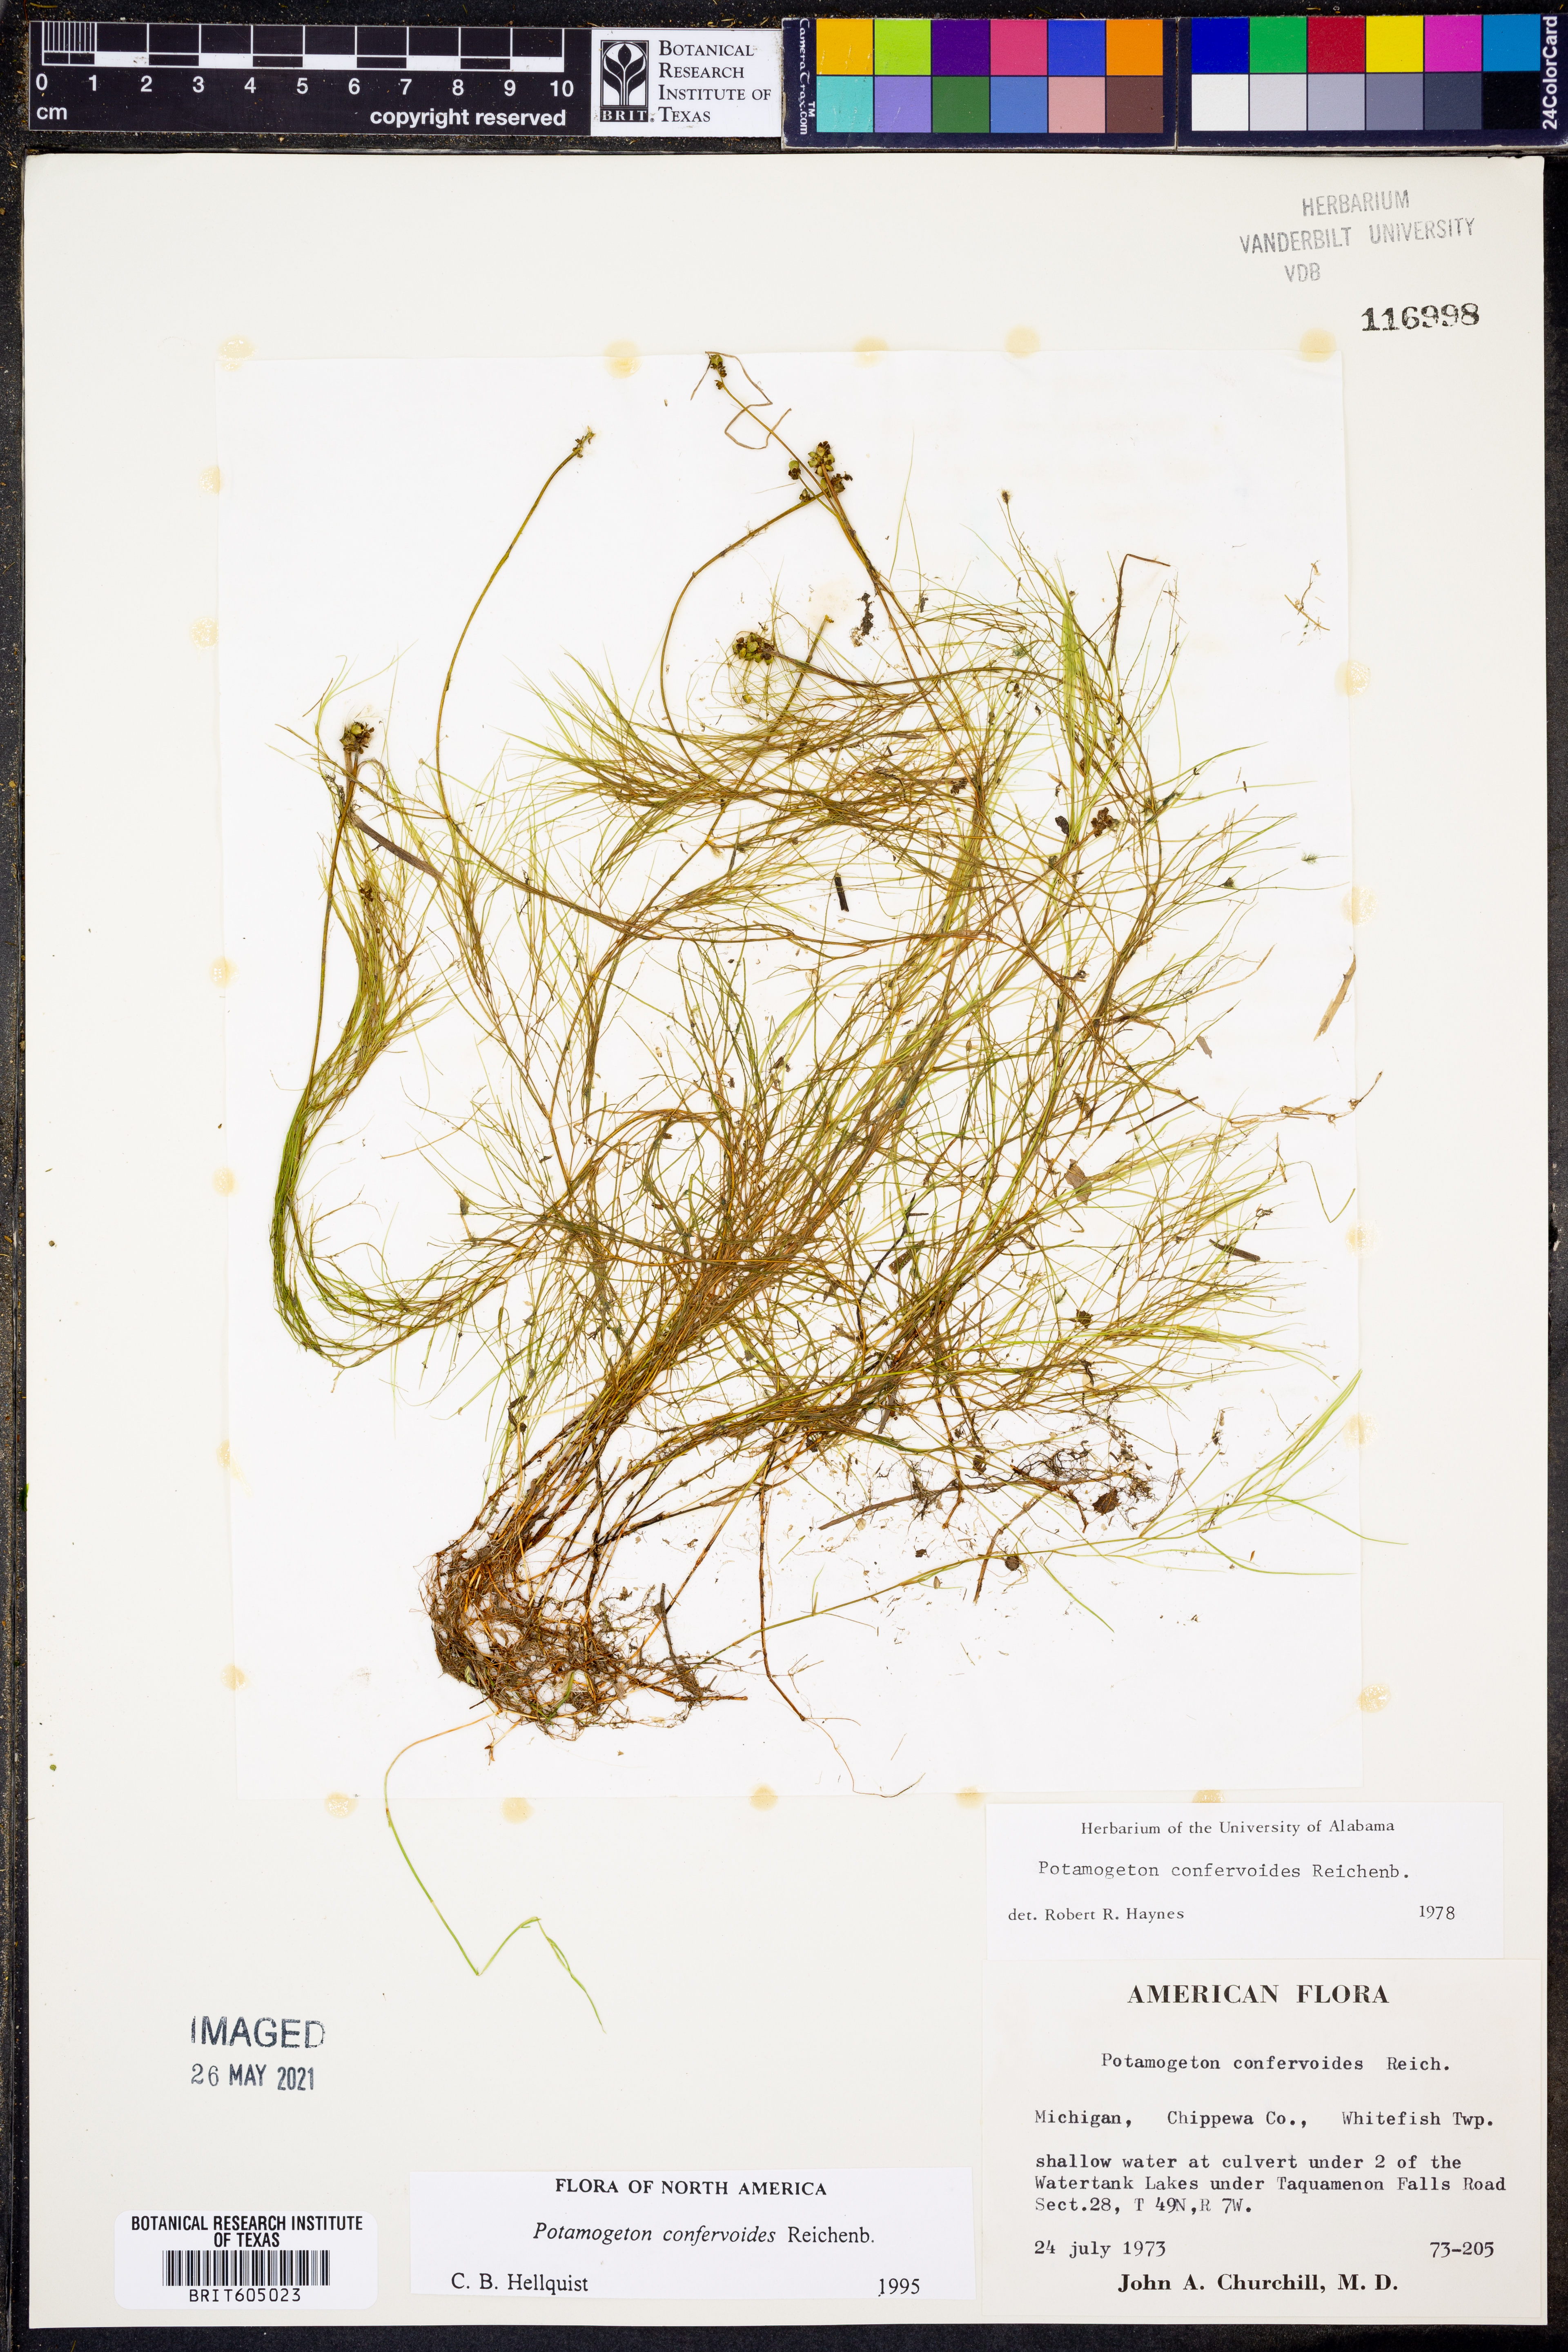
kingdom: Plantae
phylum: Tracheophyta
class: Liliopsida
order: Alismatales
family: Potamogetonaceae
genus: Potamogeton
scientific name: Potamogeton confervoides
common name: Alga pondweed
